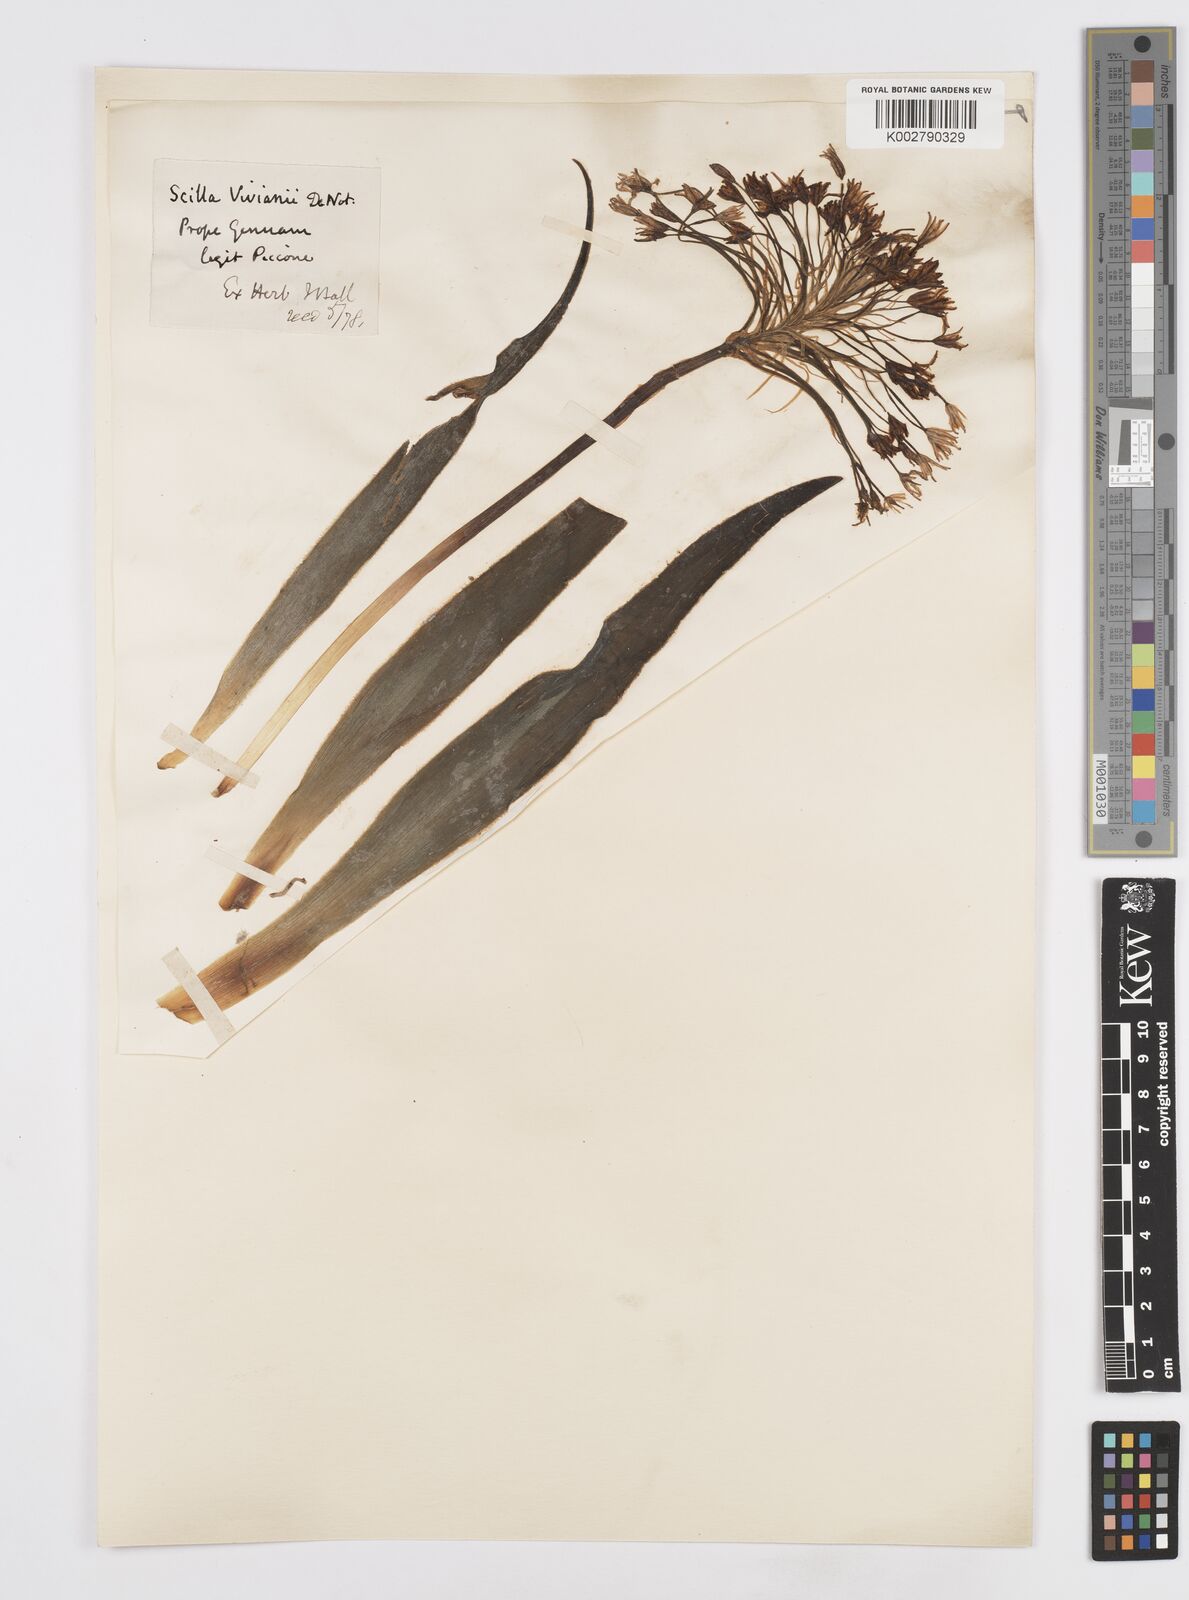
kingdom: Plantae
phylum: Tracheophyta
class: Liliopsida
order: Asparagales
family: Asparagaceae
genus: Scilla
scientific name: Scilla peruviana
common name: Portuguese squill
